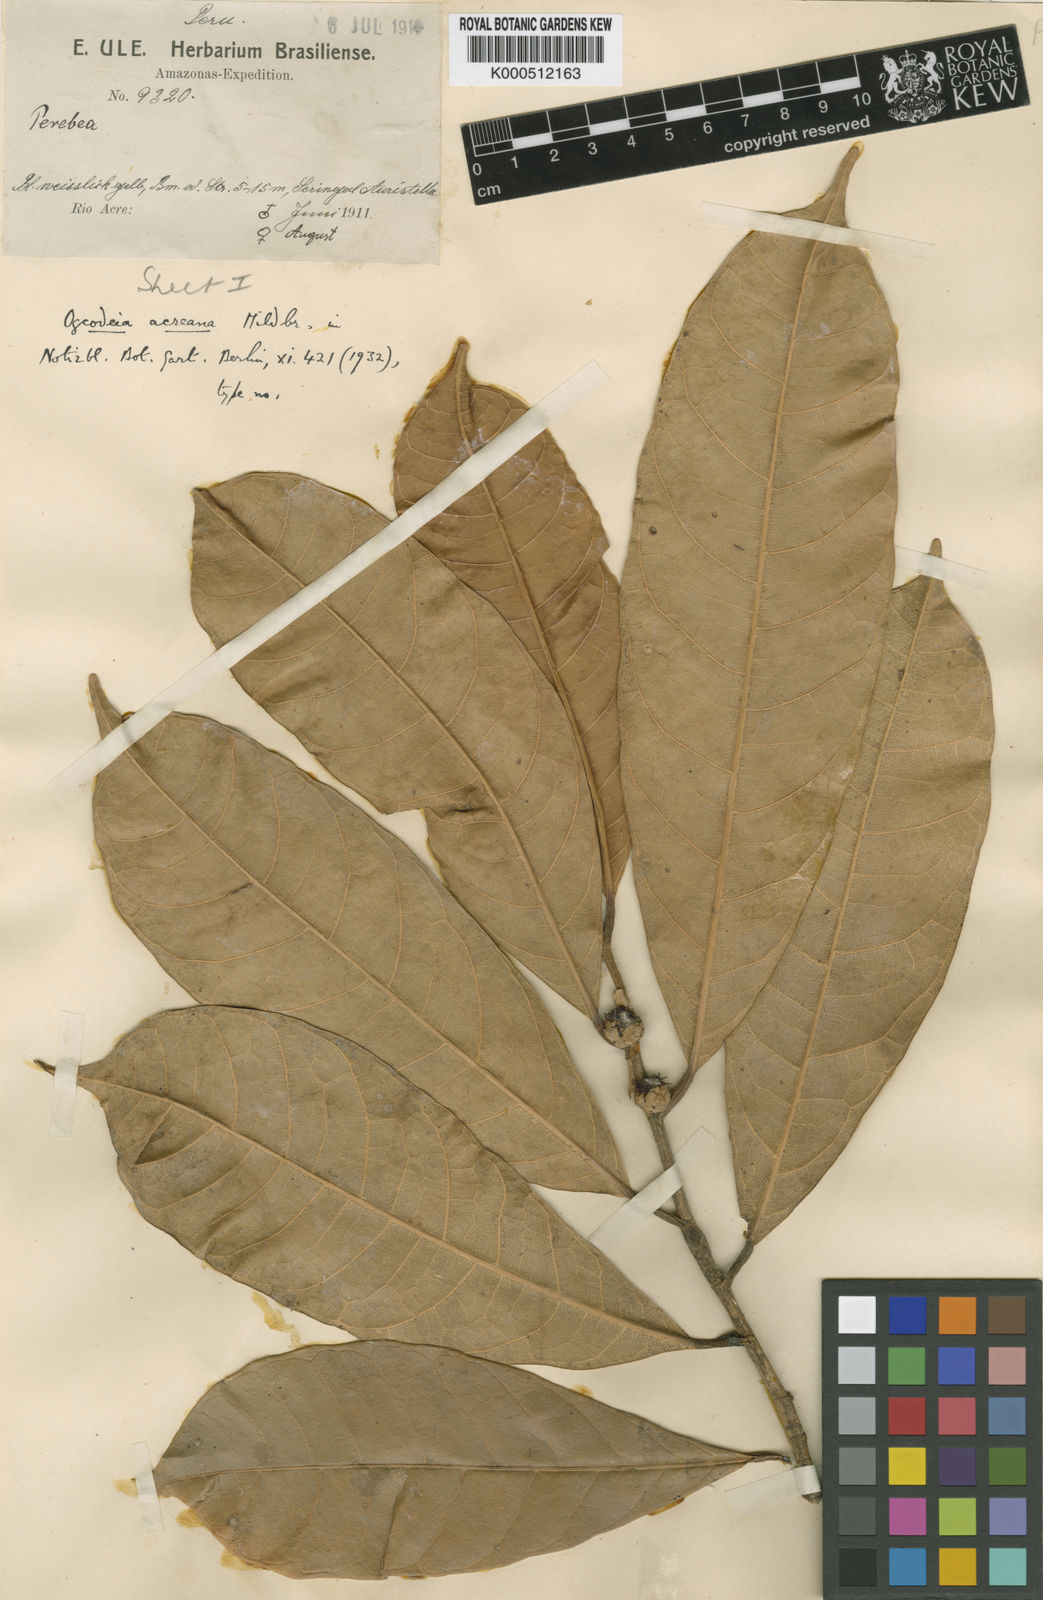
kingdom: Plantae
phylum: Tracheophyta
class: Magnoliopsida
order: Rosales
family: Moraceae
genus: Naucleopsis
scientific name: Naucleopsis glabra
